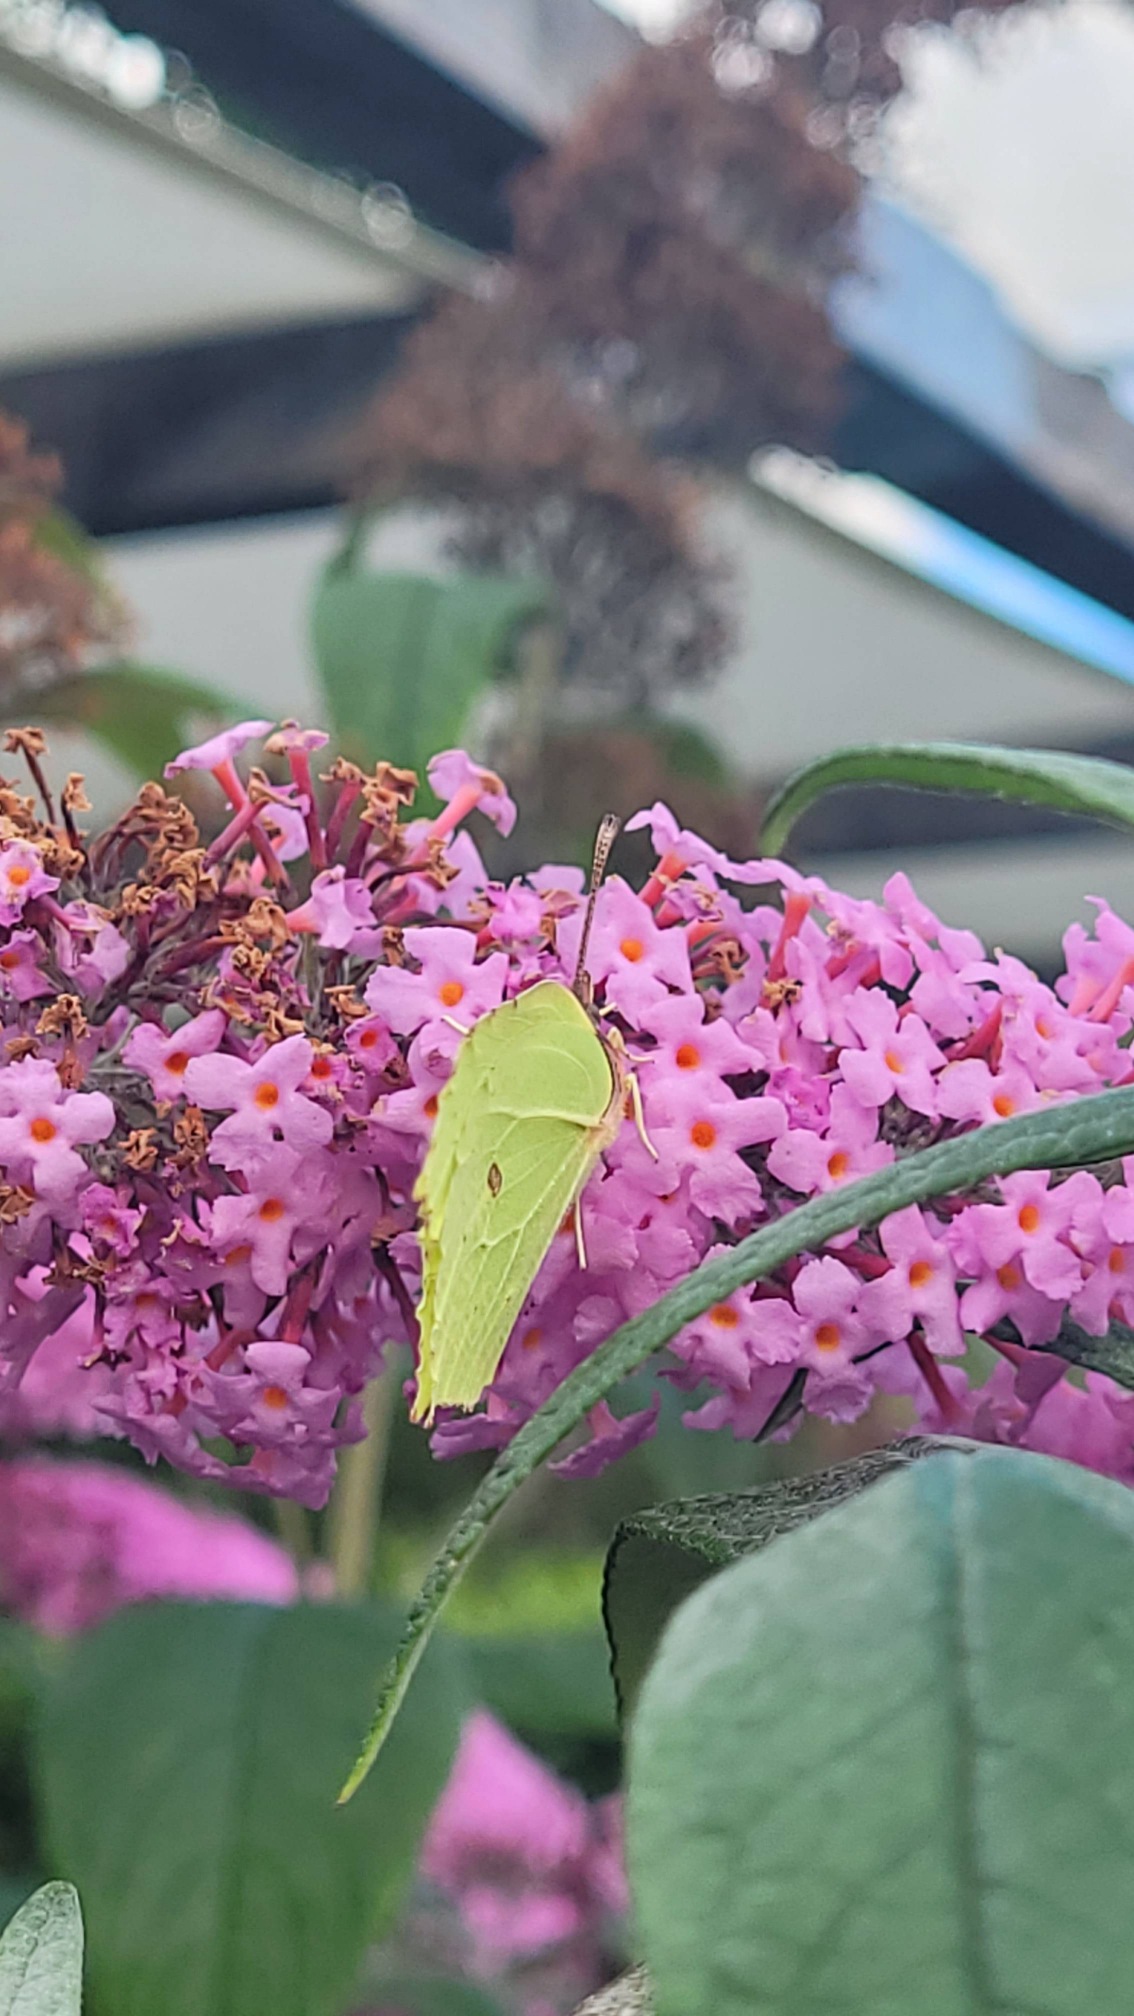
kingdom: Animalia
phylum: Arthropoda
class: Insecta
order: Lepidoptera
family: Pieridae
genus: Gonepteryx
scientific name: Gonepteryx rhamni
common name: Citronsommerfugl
